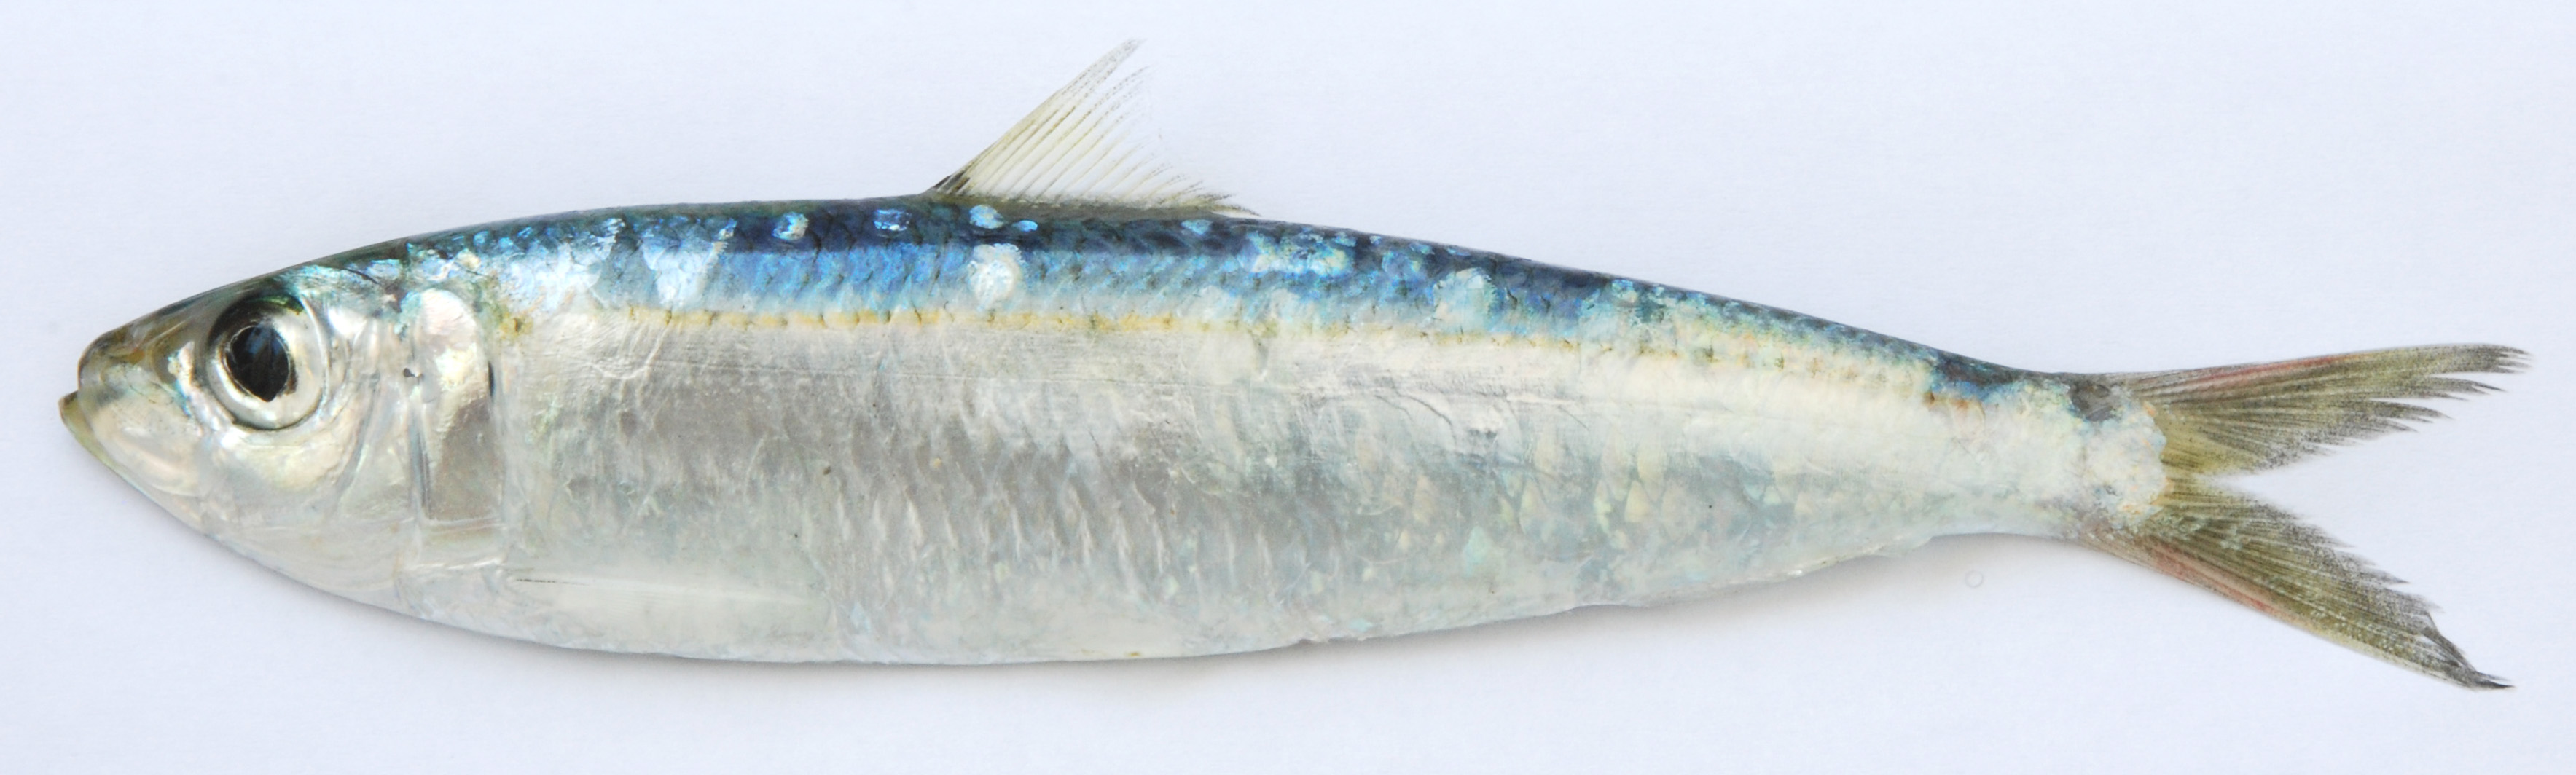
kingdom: Animalia
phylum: Chordata
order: Clupeiformes
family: Clupeidae
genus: Sardinella
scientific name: Sardinella gibbosa
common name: Goldstripe sardinella
